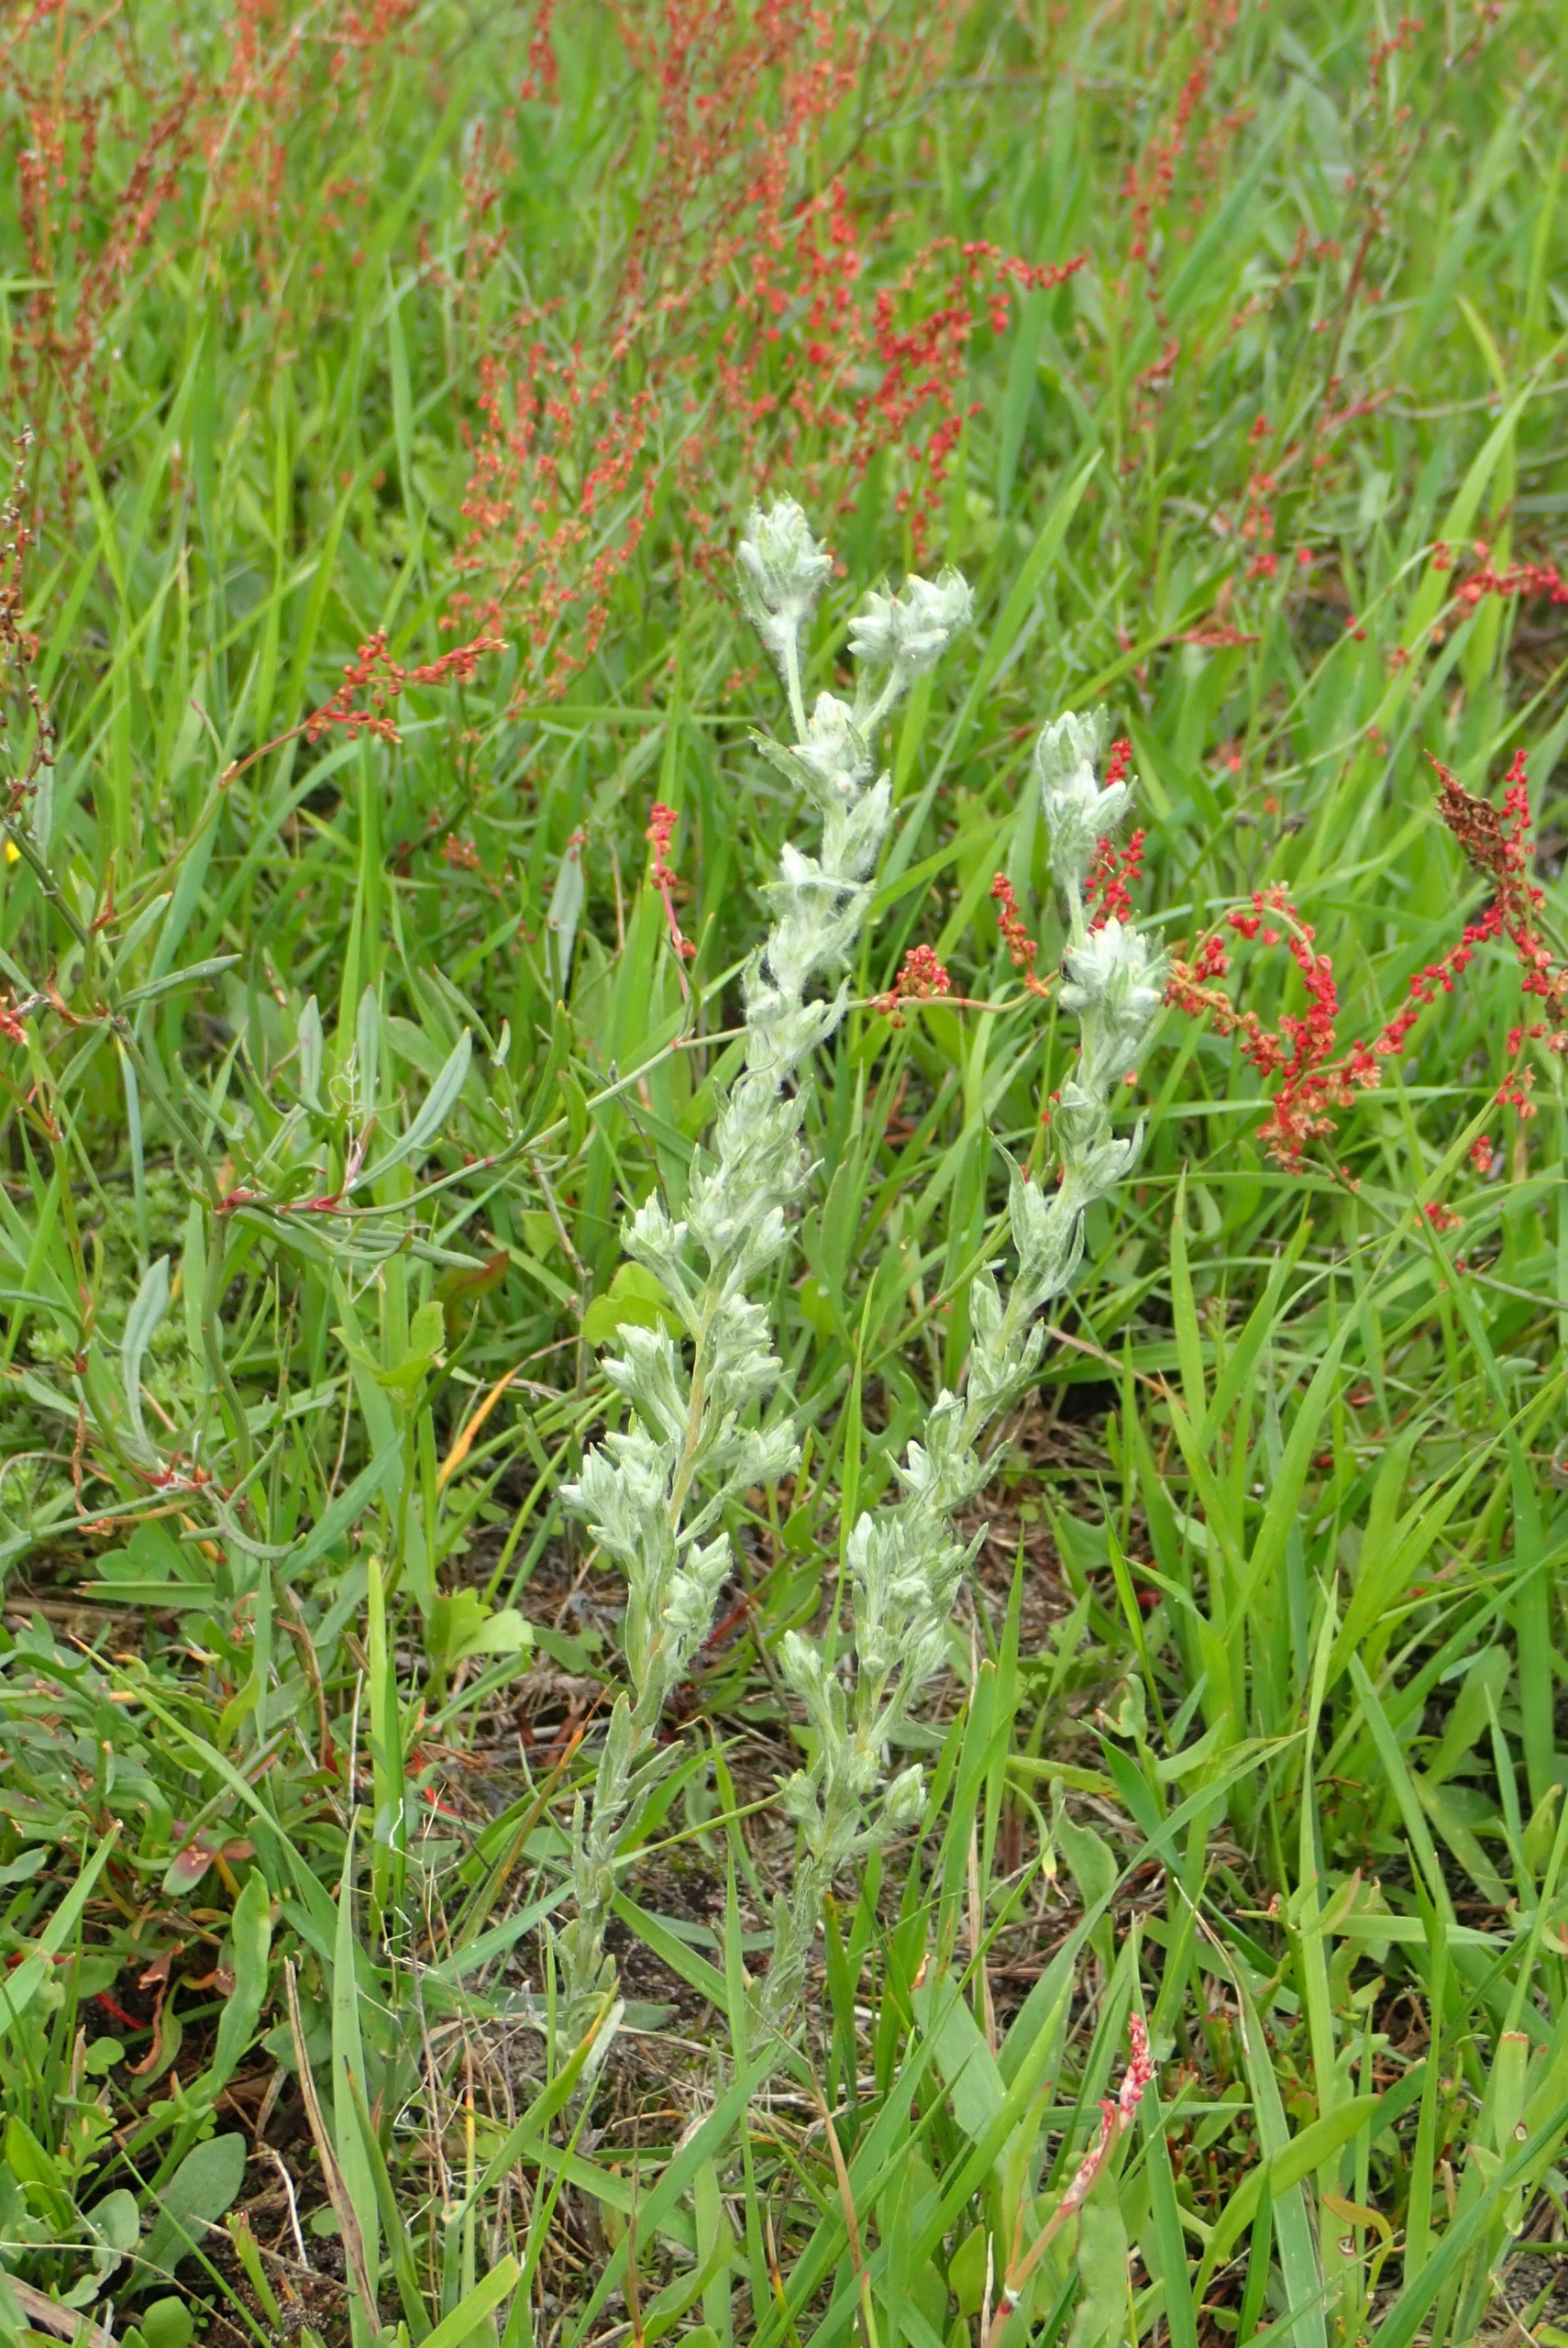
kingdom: Plantae
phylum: Tracheophyta
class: Magnoliopsida
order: Asterales
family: Asteraceae
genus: Filago
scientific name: Filago arvensis
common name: Ager-museurt
